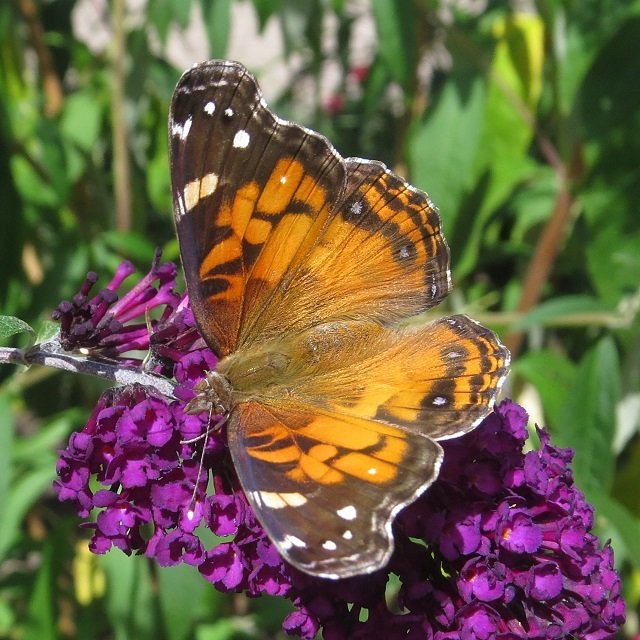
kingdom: Animalia
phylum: Arthropoda
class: Insecta
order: Lepidoptera
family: Nymphalidae
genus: Vanessa
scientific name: Vanessa virginiensis
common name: American Lady
